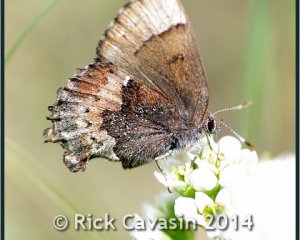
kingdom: Animalia
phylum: Arthropoda
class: Insecta
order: Lepidoptera
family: Lycaenidae
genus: Incisalia
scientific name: Incisalia henrici
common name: Henry's Elfin
